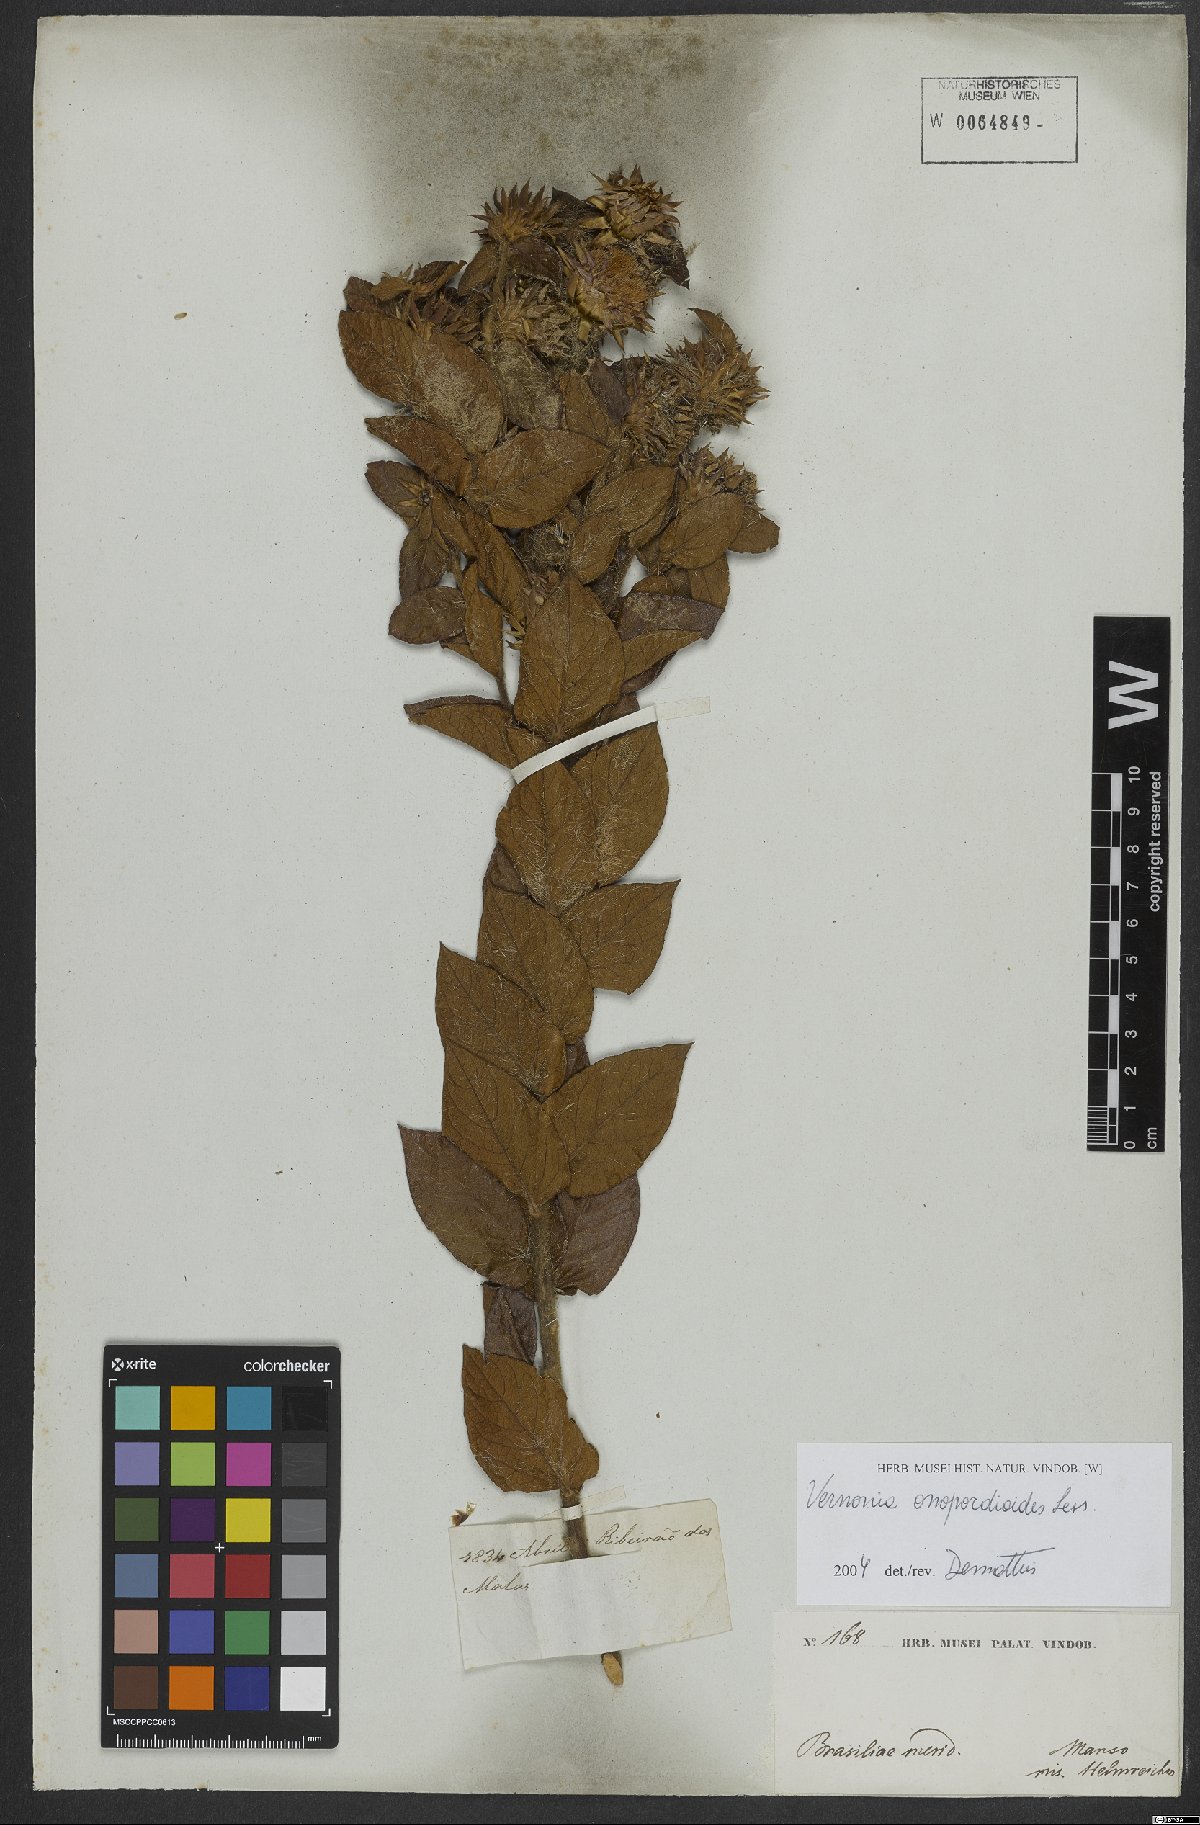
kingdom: Plantae
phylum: Tracheophyta
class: Magnoliopsida
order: Asterales
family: Asteraceae
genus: Lessingianthus
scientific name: Lessingianthus onopordioides
